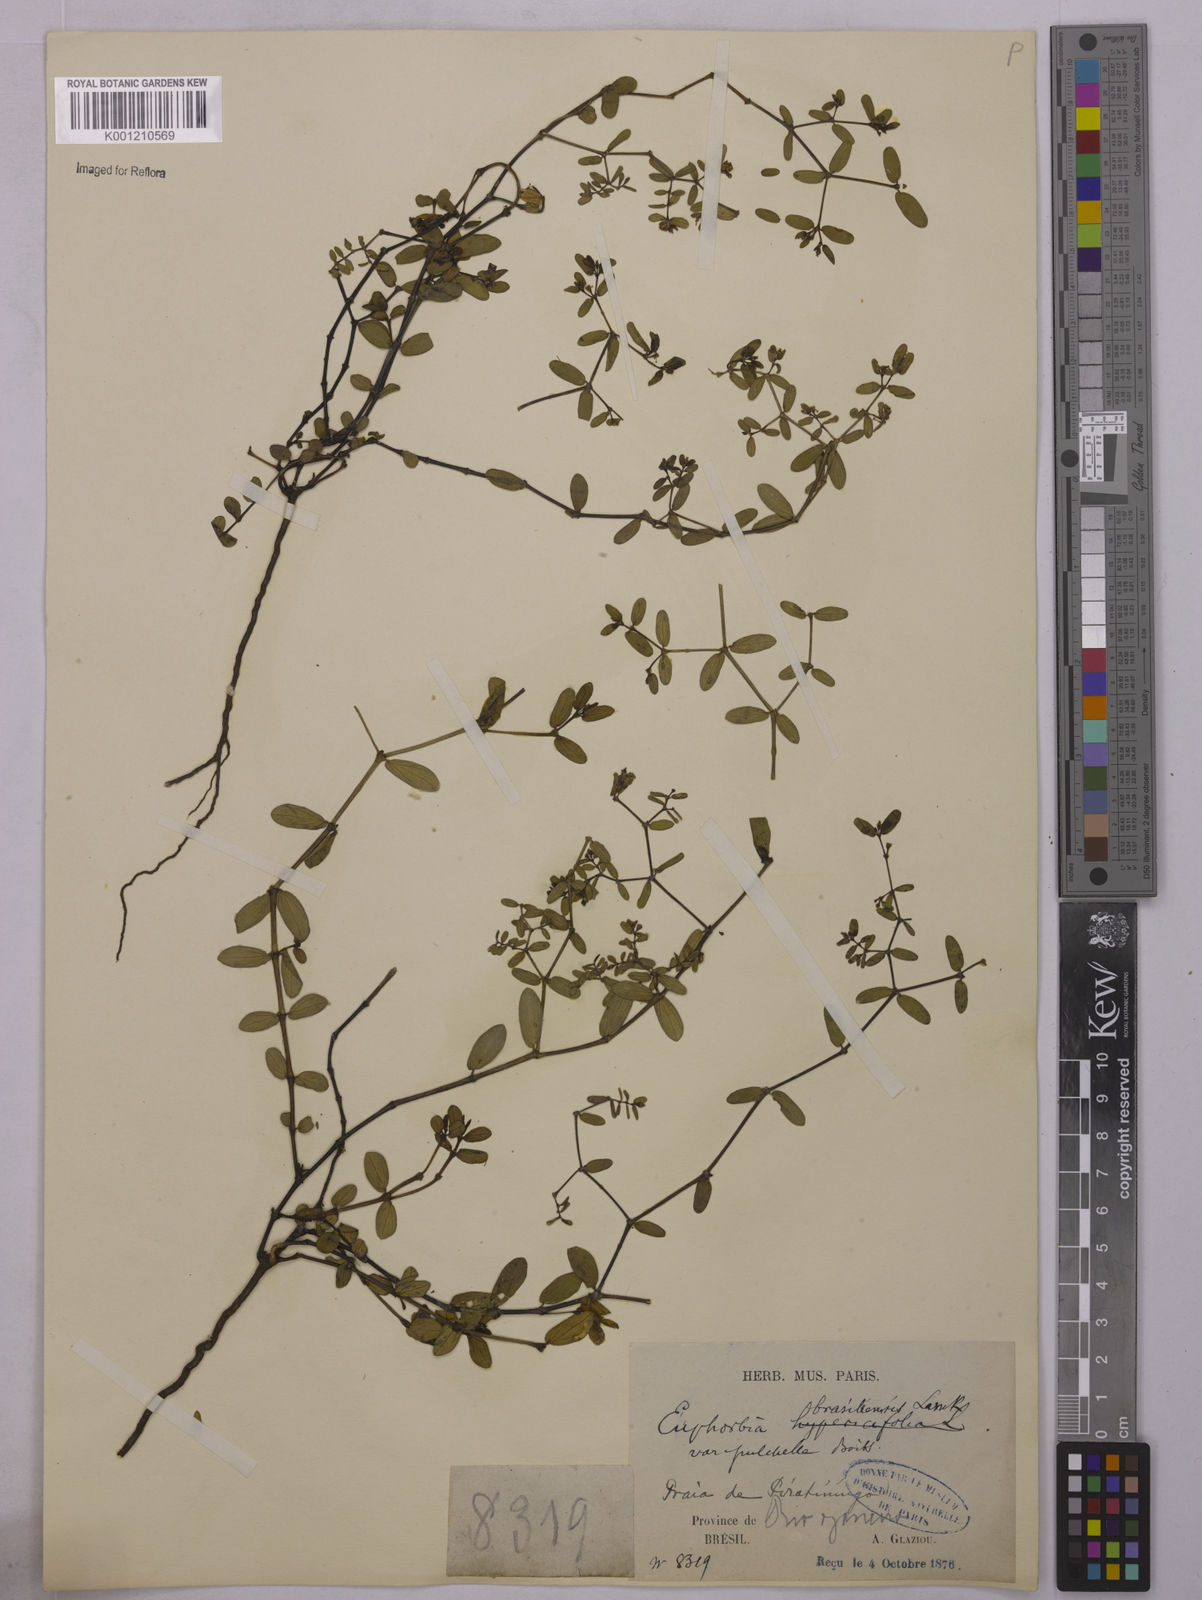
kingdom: Plantae
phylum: Tracheophyta
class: Magnoliopsida
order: Malpighiales
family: Euphorbiaceae
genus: Euphorbia
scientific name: Euphorbia hyssopifolia
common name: Hyssopleaf sandmat
